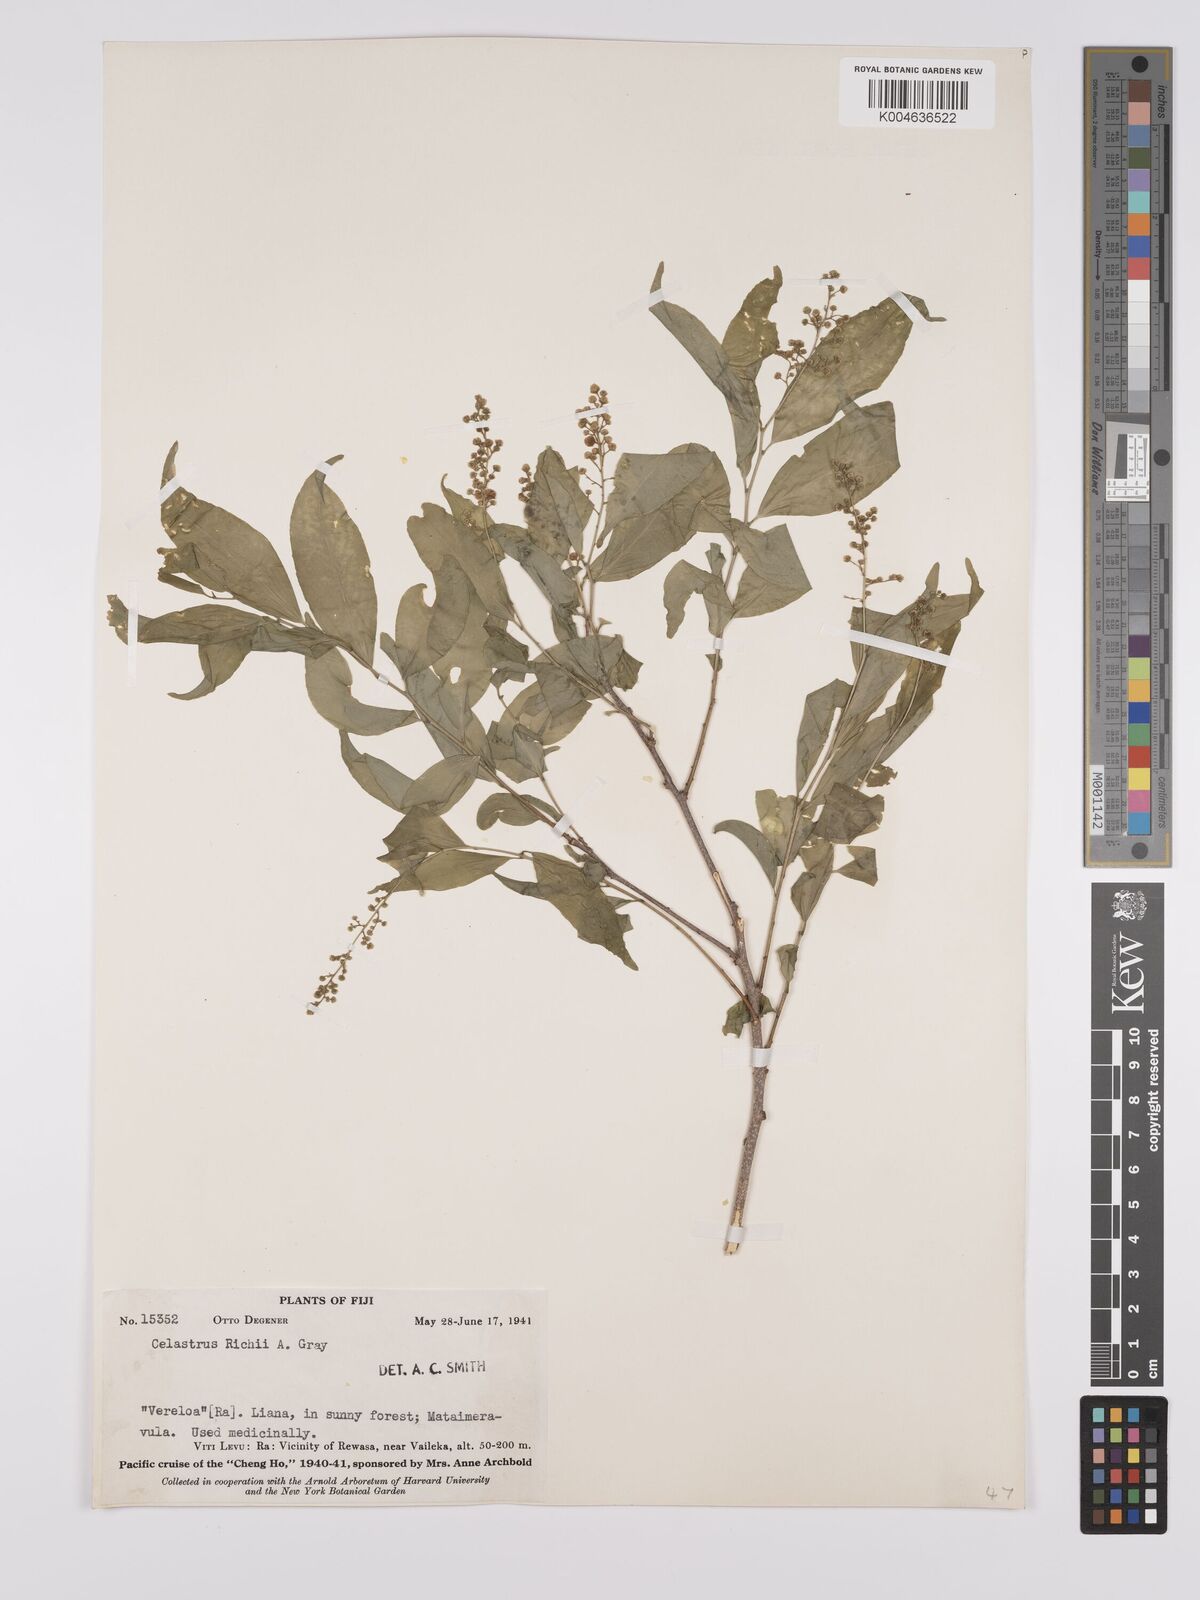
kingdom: Plantae
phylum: Tracheophyta
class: Magnoliopsida
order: Celastrales
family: Celastraceae
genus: Celastrus
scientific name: Celastrus richii
